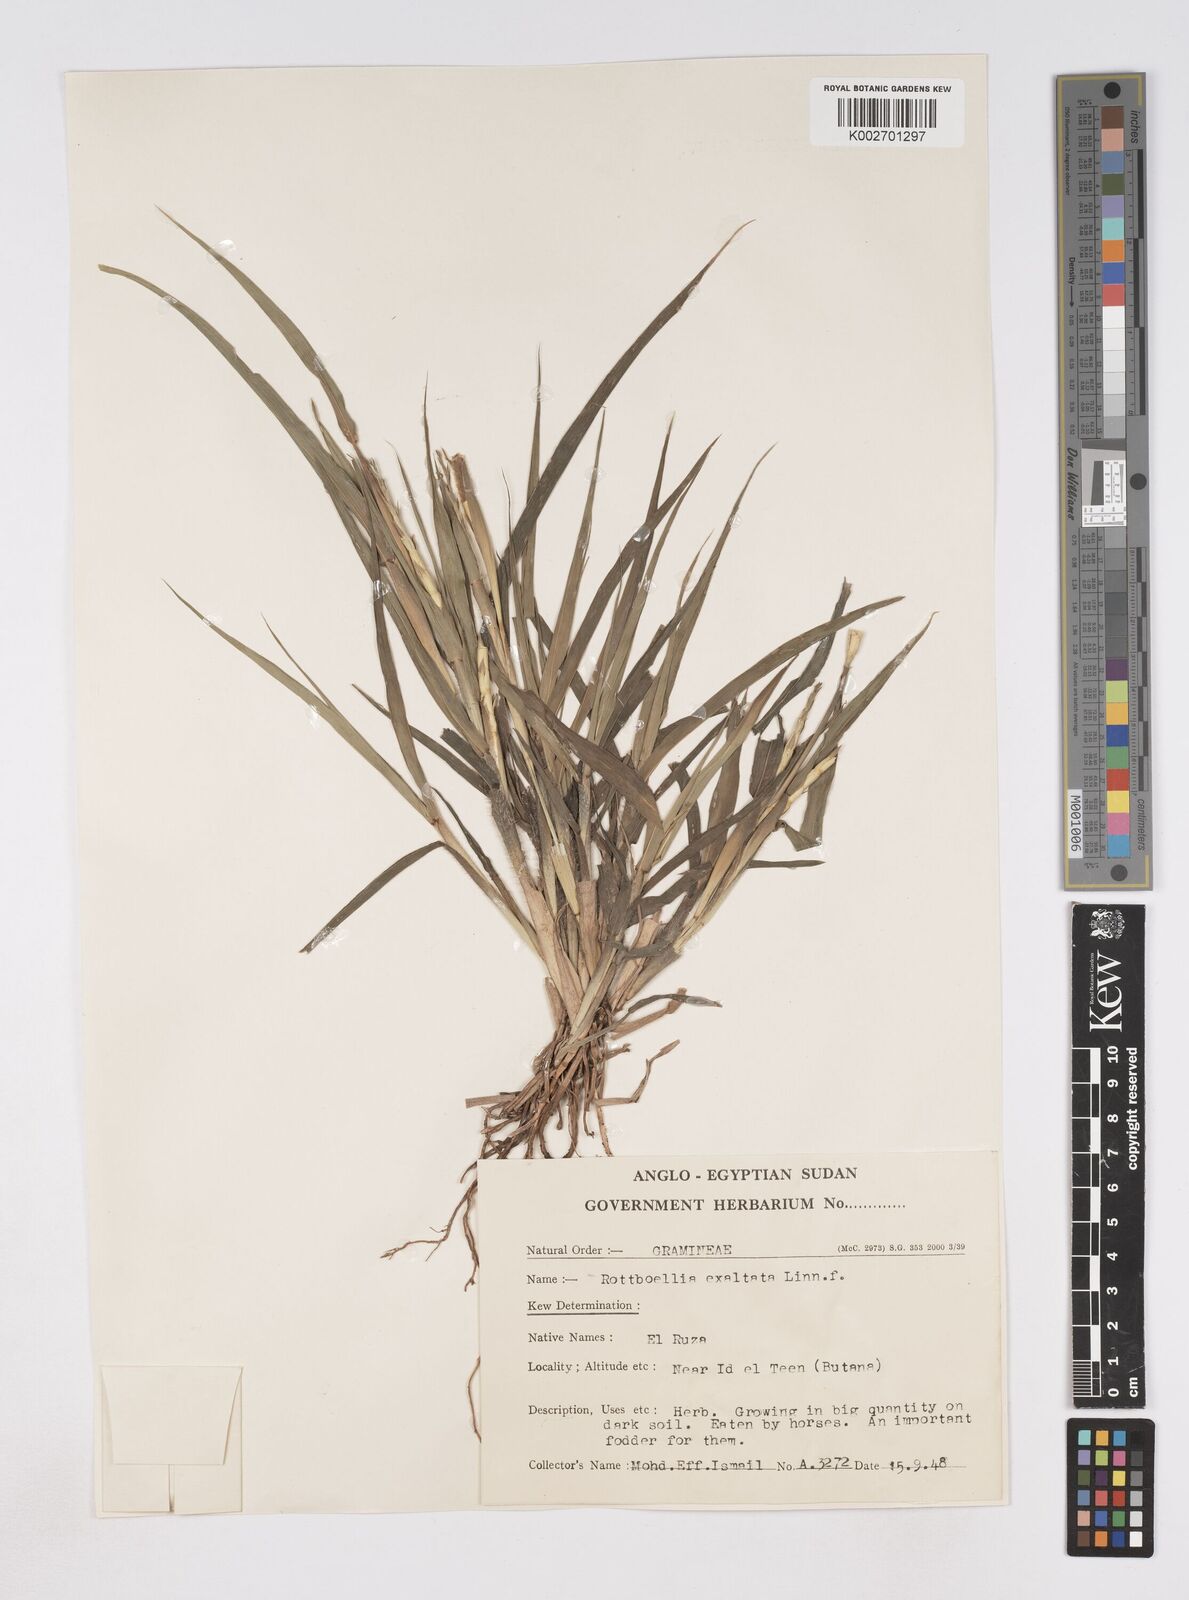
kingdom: Plantae
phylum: Tracheophyta
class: Liliopsida
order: Poales
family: Poaceae
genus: Rottboellia
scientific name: Rottboellia cochinchinensis
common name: Itchgrass
